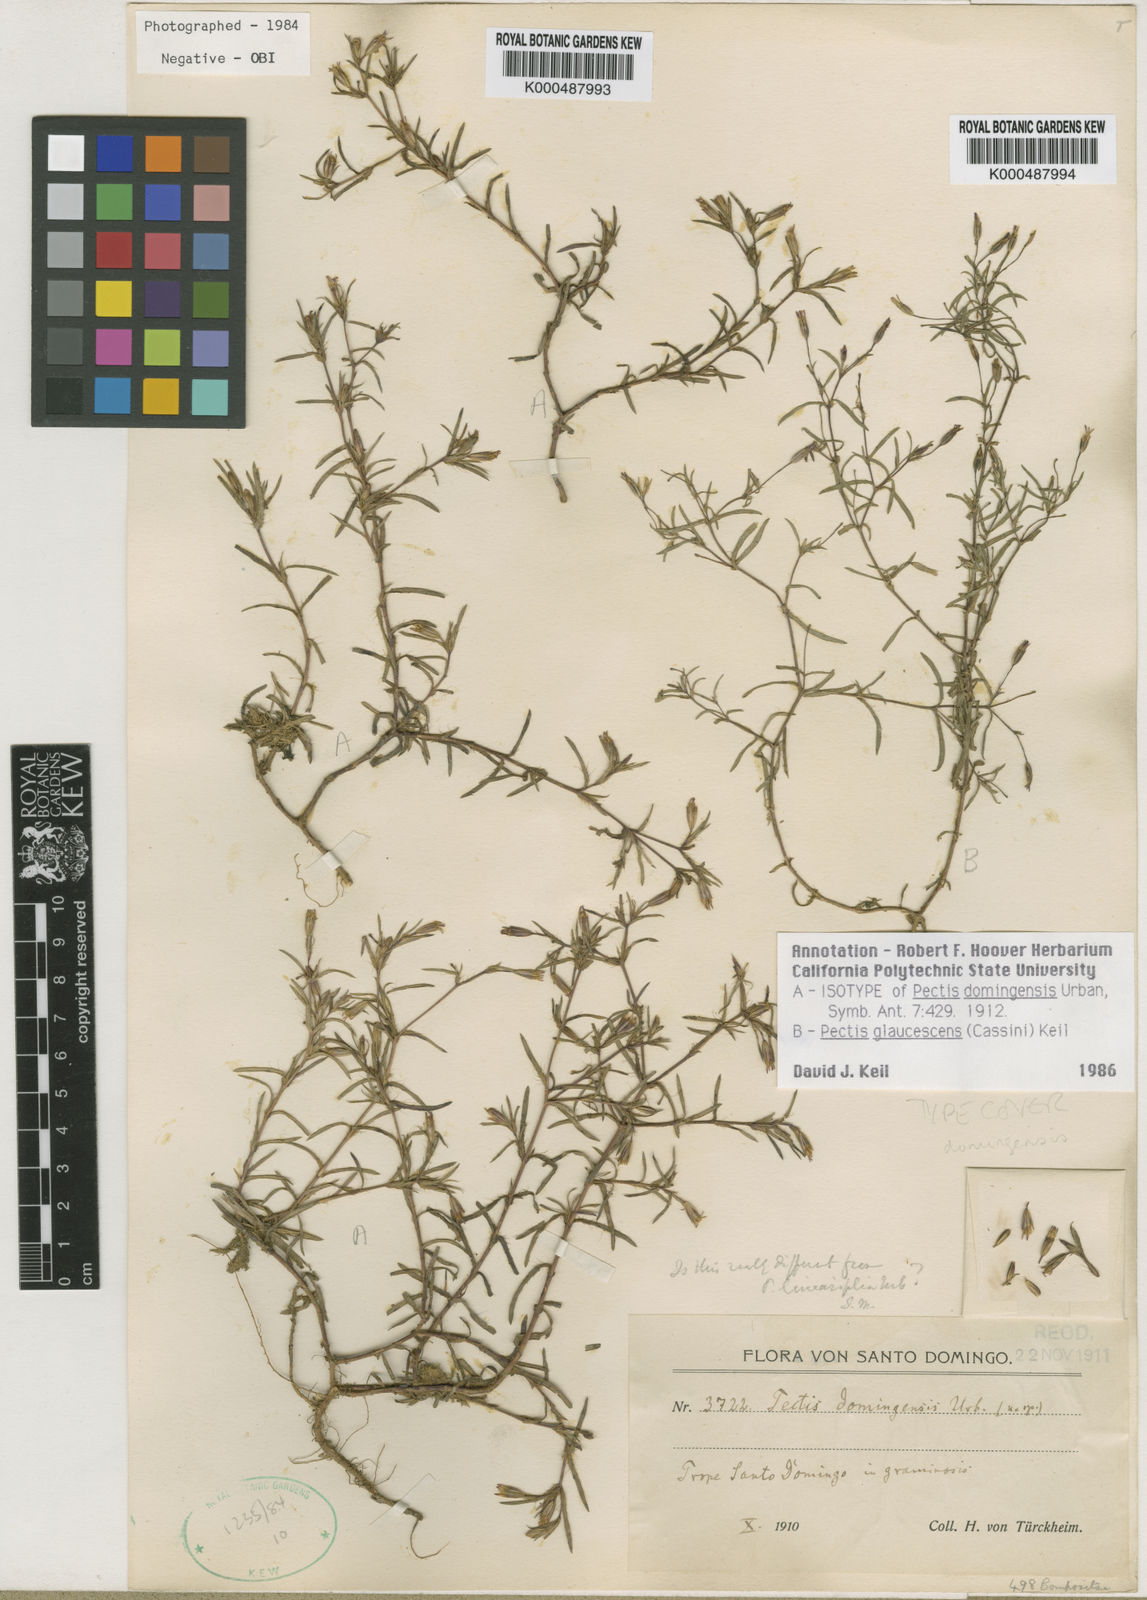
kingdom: Plantae
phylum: Tracheophyta
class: Magnoliopsida
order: Asterales
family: Asteraceae
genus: Pectis
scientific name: Pectis domingensis
